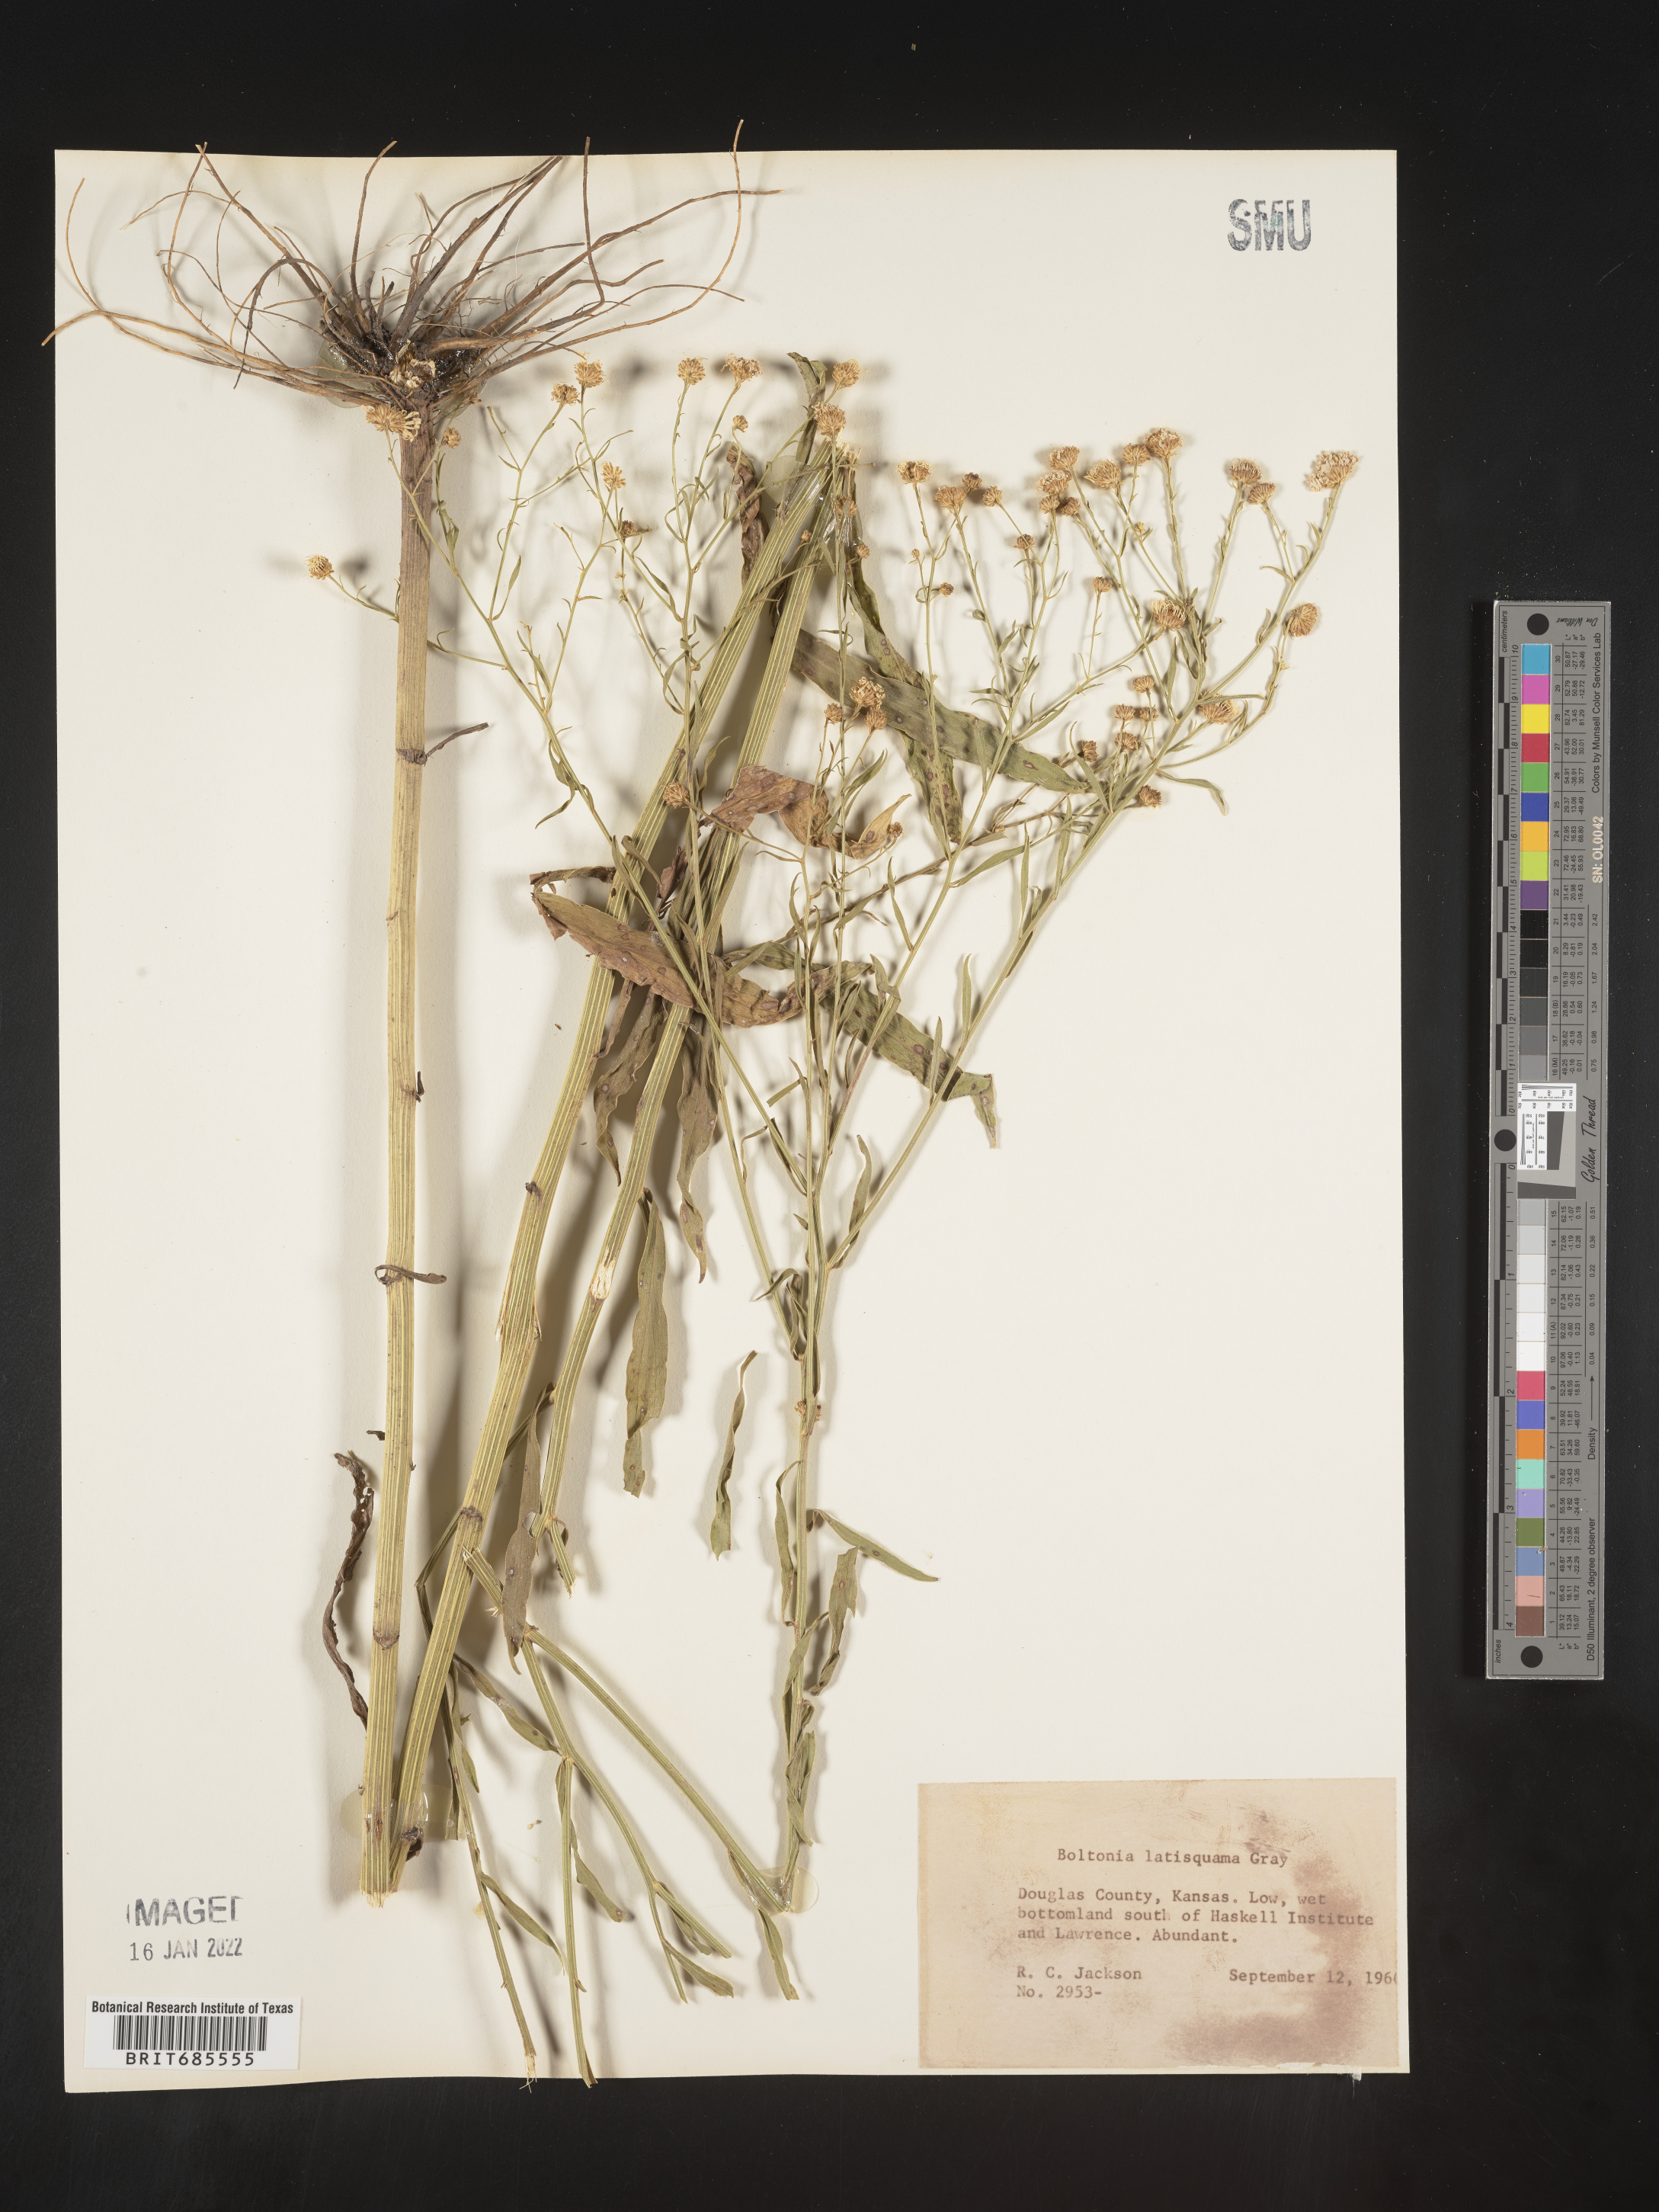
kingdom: Plantae
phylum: Tracheophyta
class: Magnoliopsida
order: Asterales
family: Asteraceae
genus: Boltonia
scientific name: Boltonia
